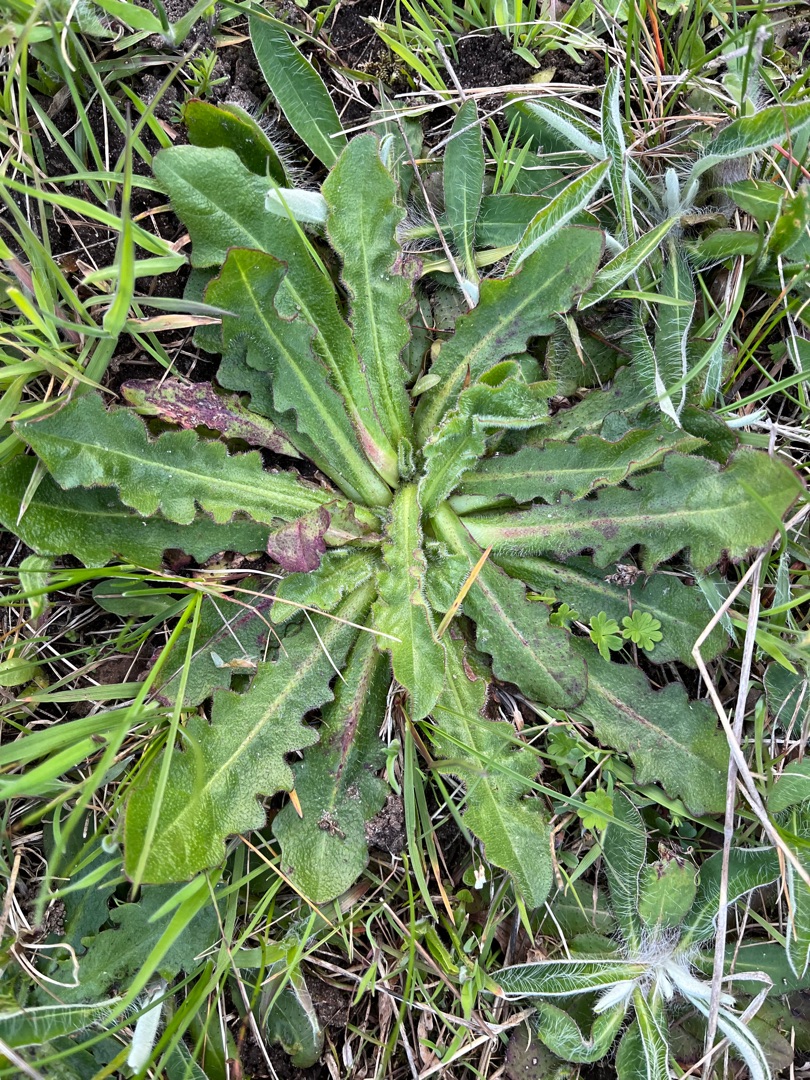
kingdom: Plantae
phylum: Tracheophyta
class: Magnoliopsida
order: Asterales
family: Asteraceae
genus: Hypochaeris
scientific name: Hypochaeris radicata
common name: Almindelig kongepen
